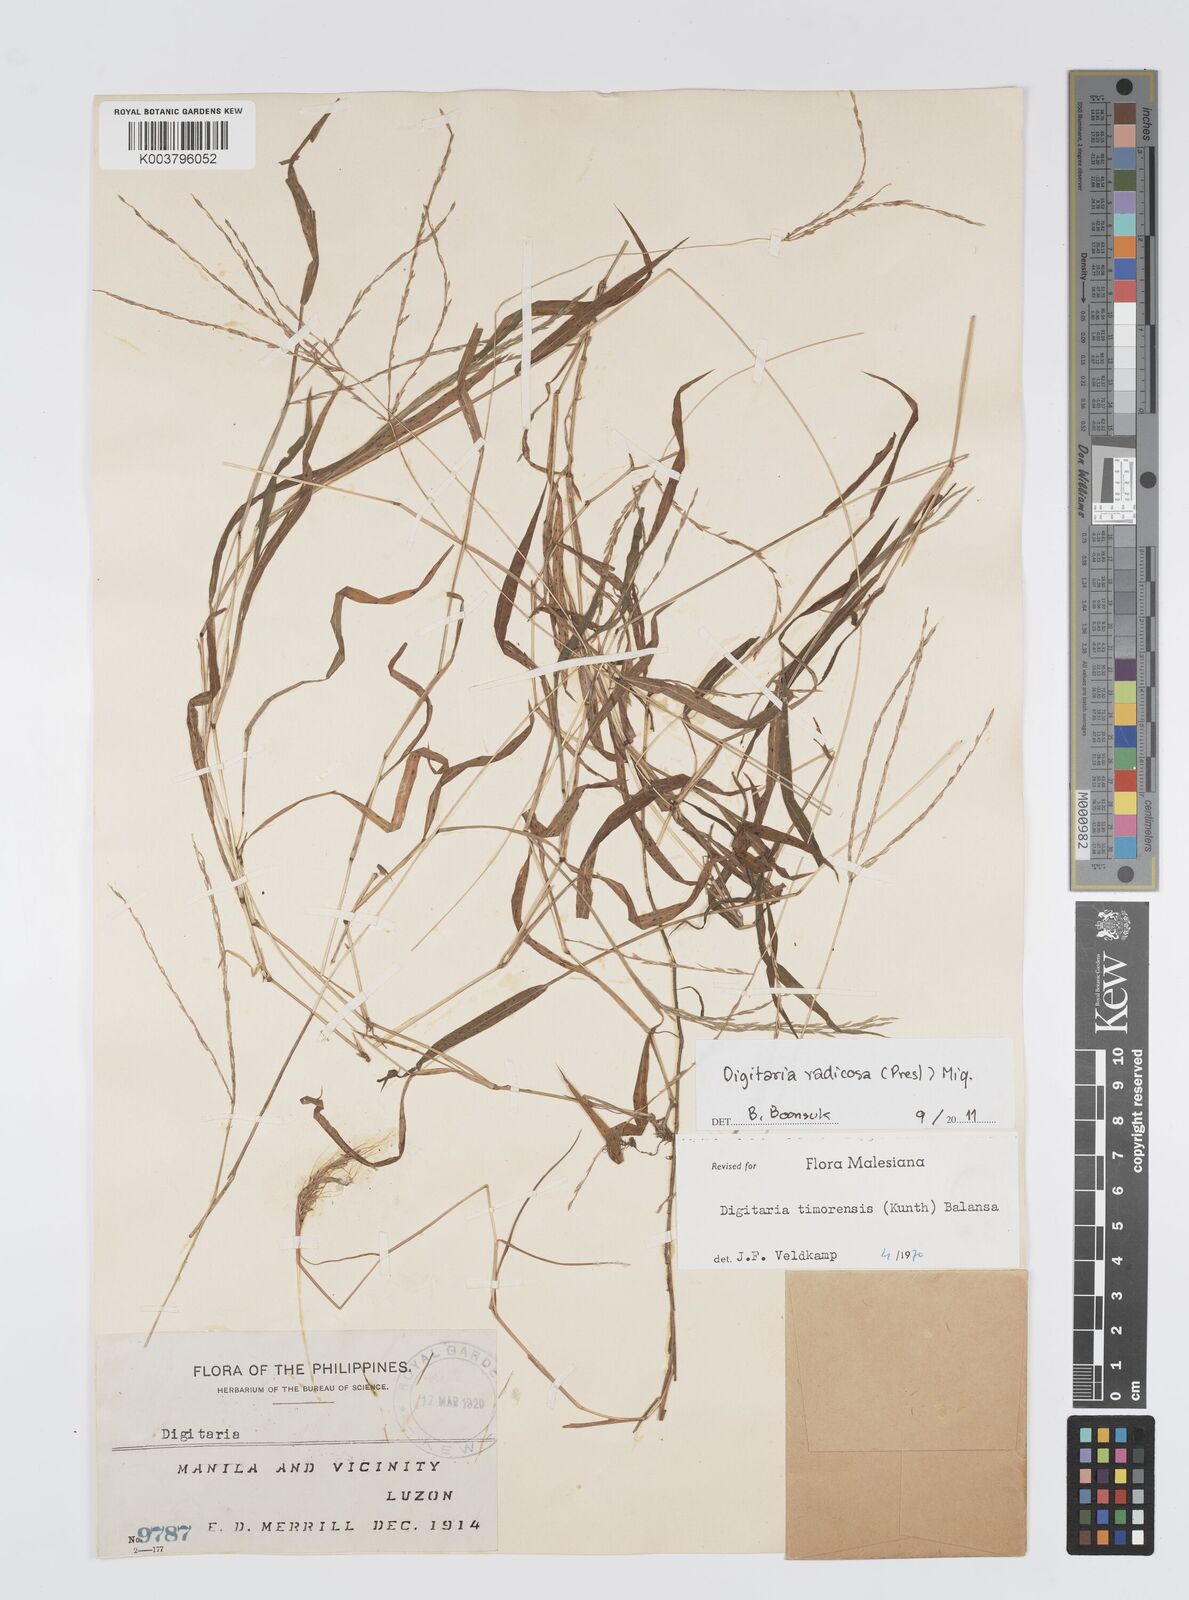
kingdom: Plantae
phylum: Tracheophyta
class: Liliopsida
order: Poales
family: Poaceae
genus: Digitaria
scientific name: Digitaria radicosa
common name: Trailing crabgrass
